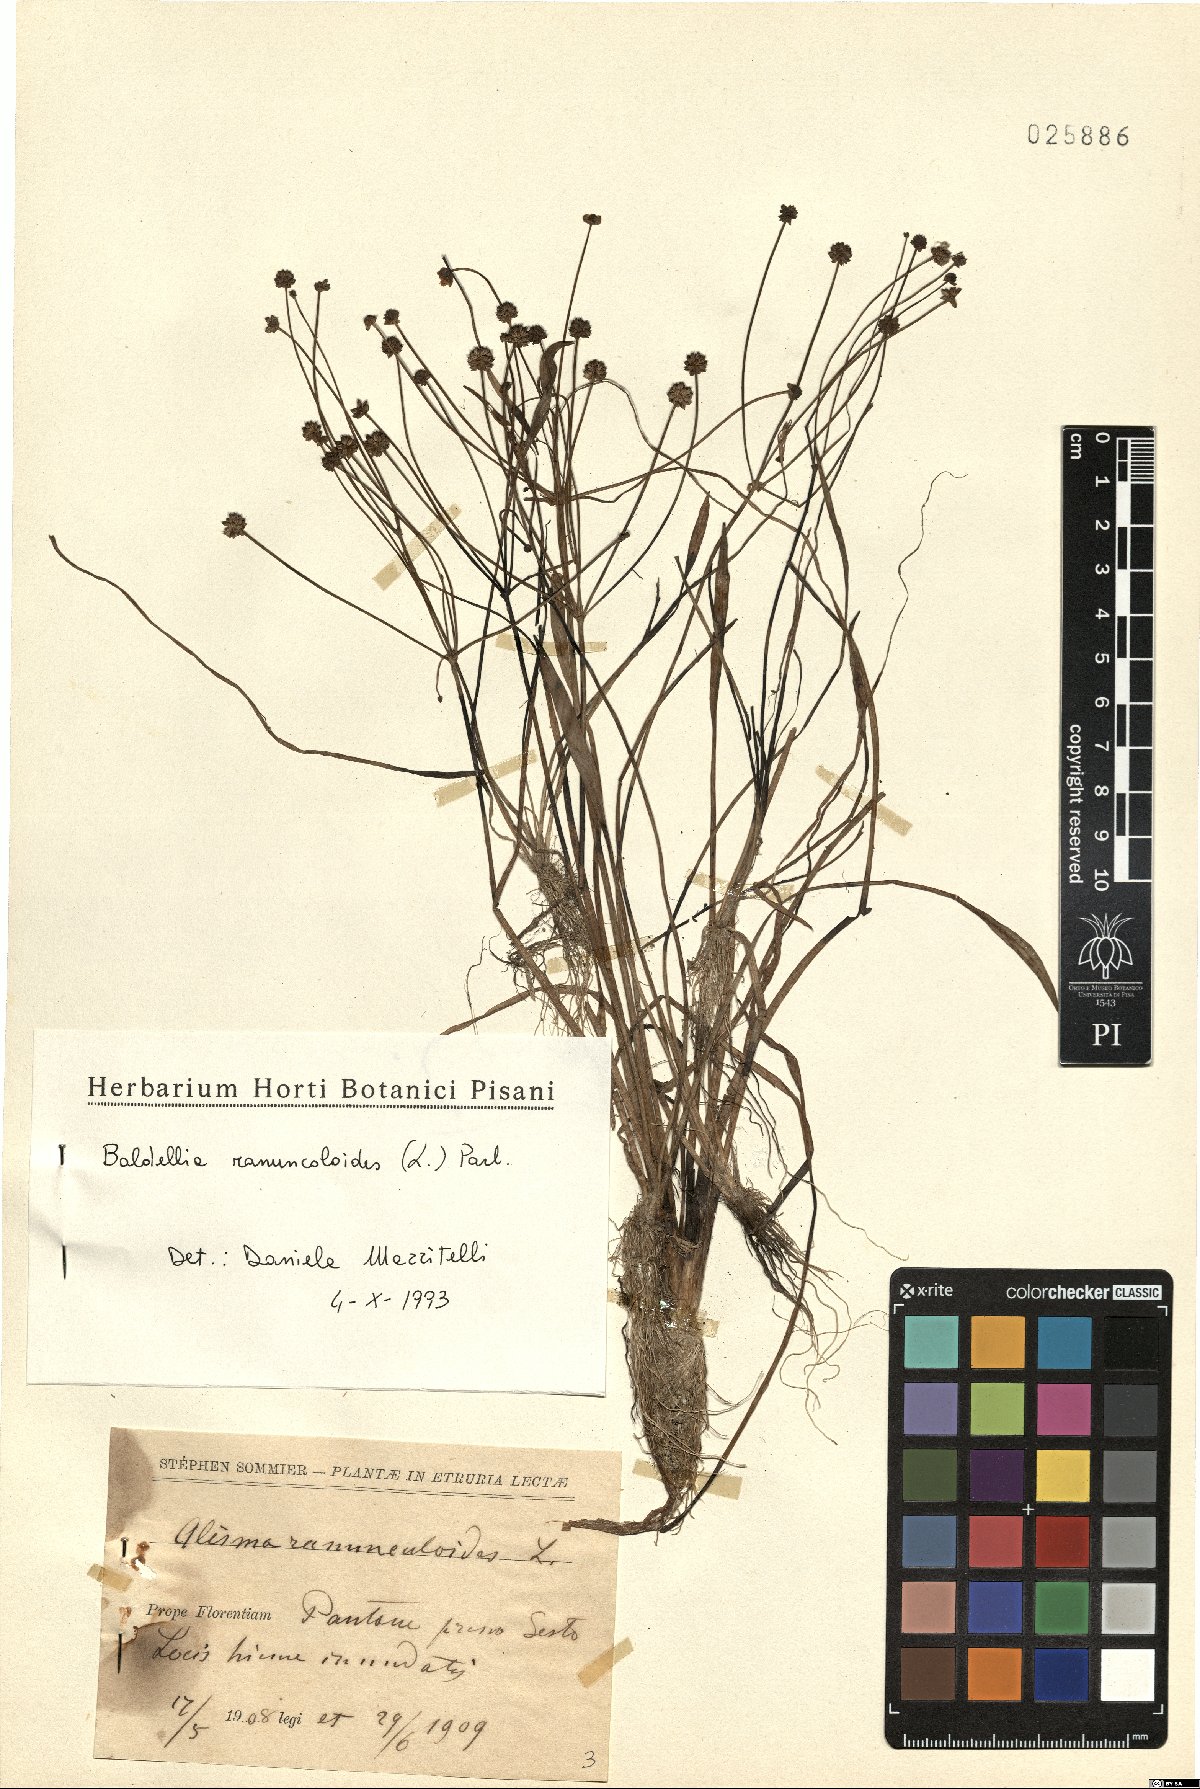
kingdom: Plantae
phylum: Tracheophyta
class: Liliopsida
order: Alismatales
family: Alismataceae
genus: Baldellia
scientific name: Baldellia ranunculoides
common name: Lesser water-plantain
